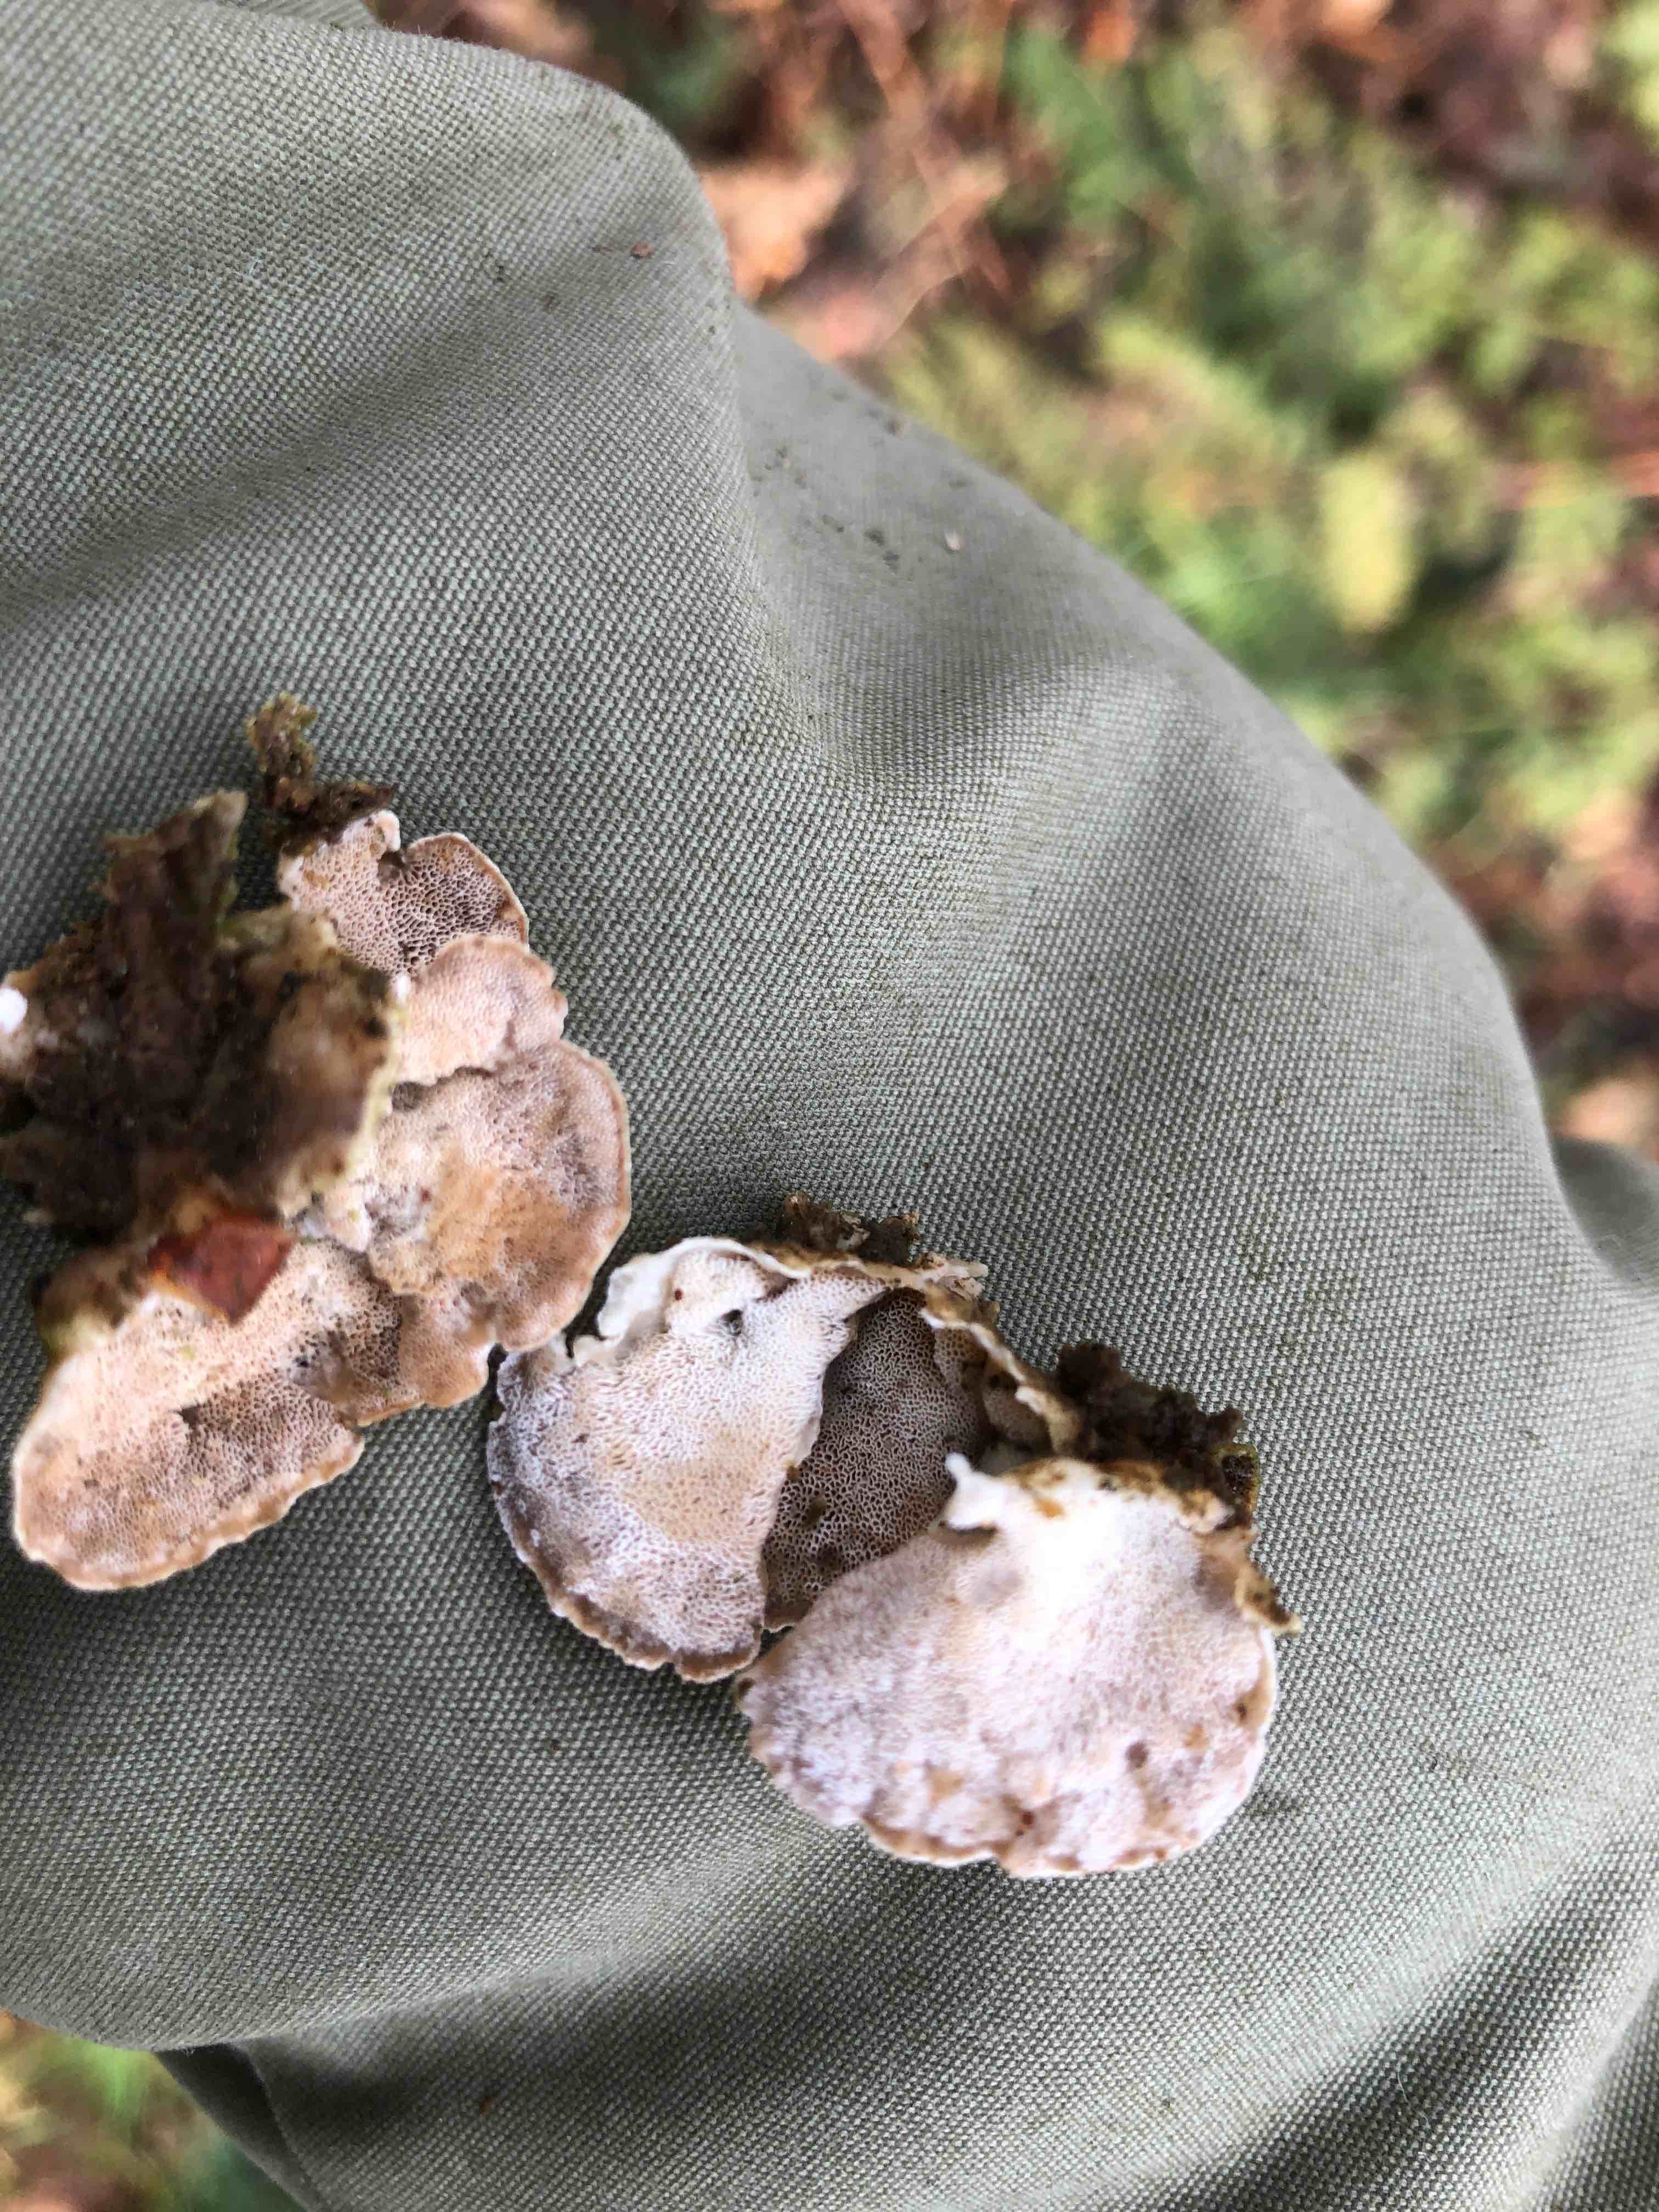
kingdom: Fungi
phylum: Basidiomycota
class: Agaricomycetes
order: Polyporales
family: Incrustoporiaceae
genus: Skeletocutis
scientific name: Skeletocutis amorpha
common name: orange krystalporesvamp
